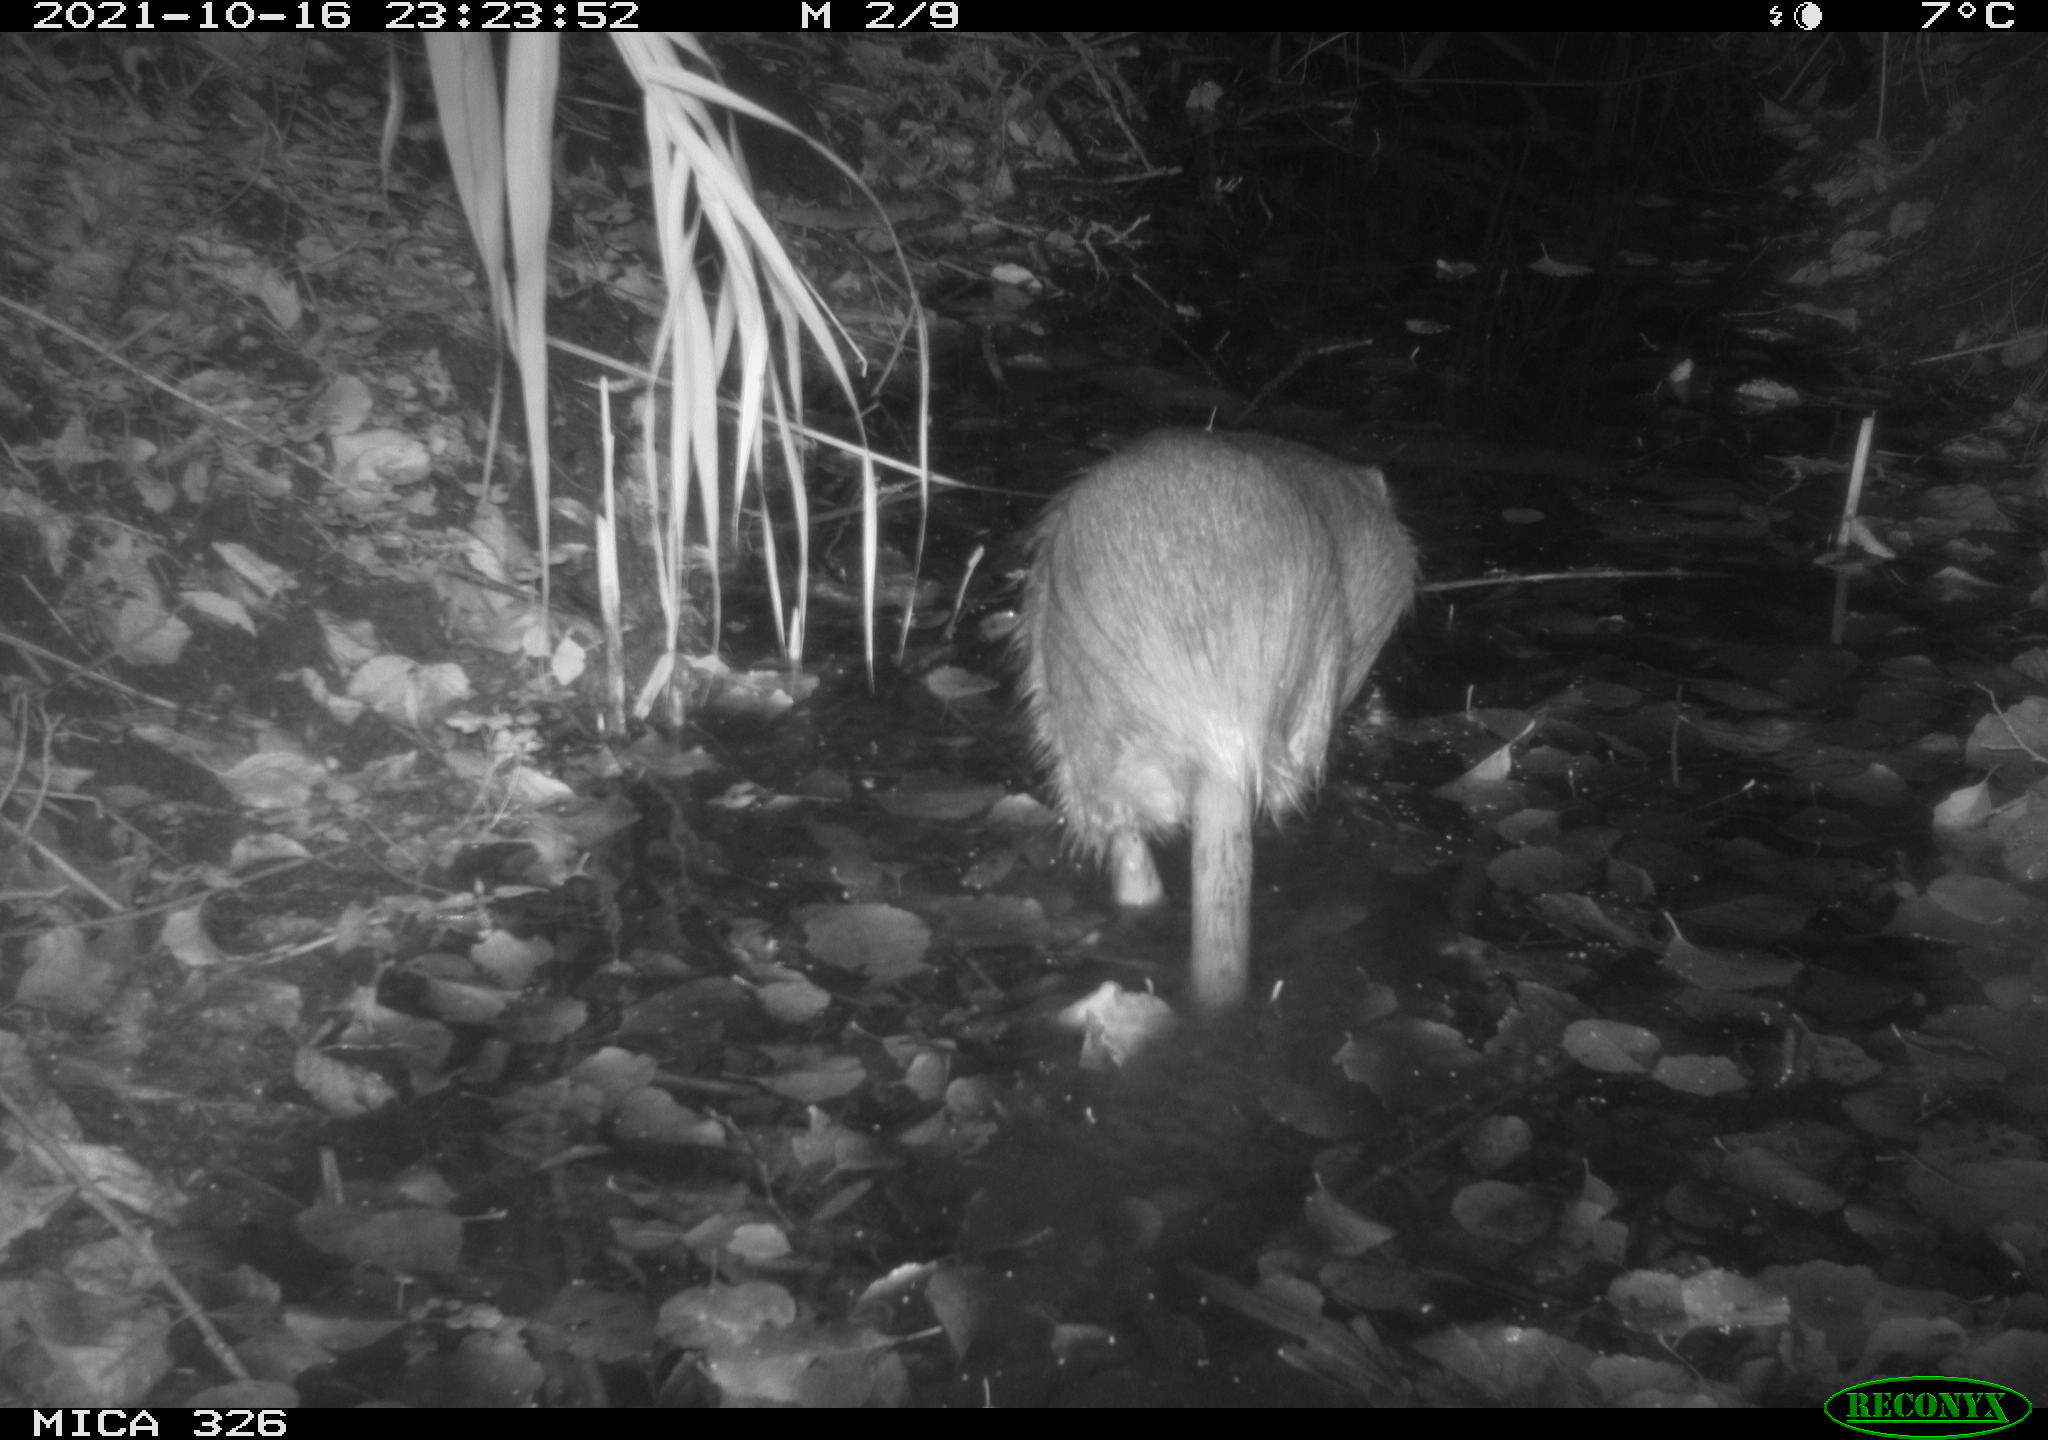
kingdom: Animalia
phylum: Chordata
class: Mammalia
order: Rodentia
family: Myocastoridae
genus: Myocastor
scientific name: Myocastor coypus
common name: Coypu
